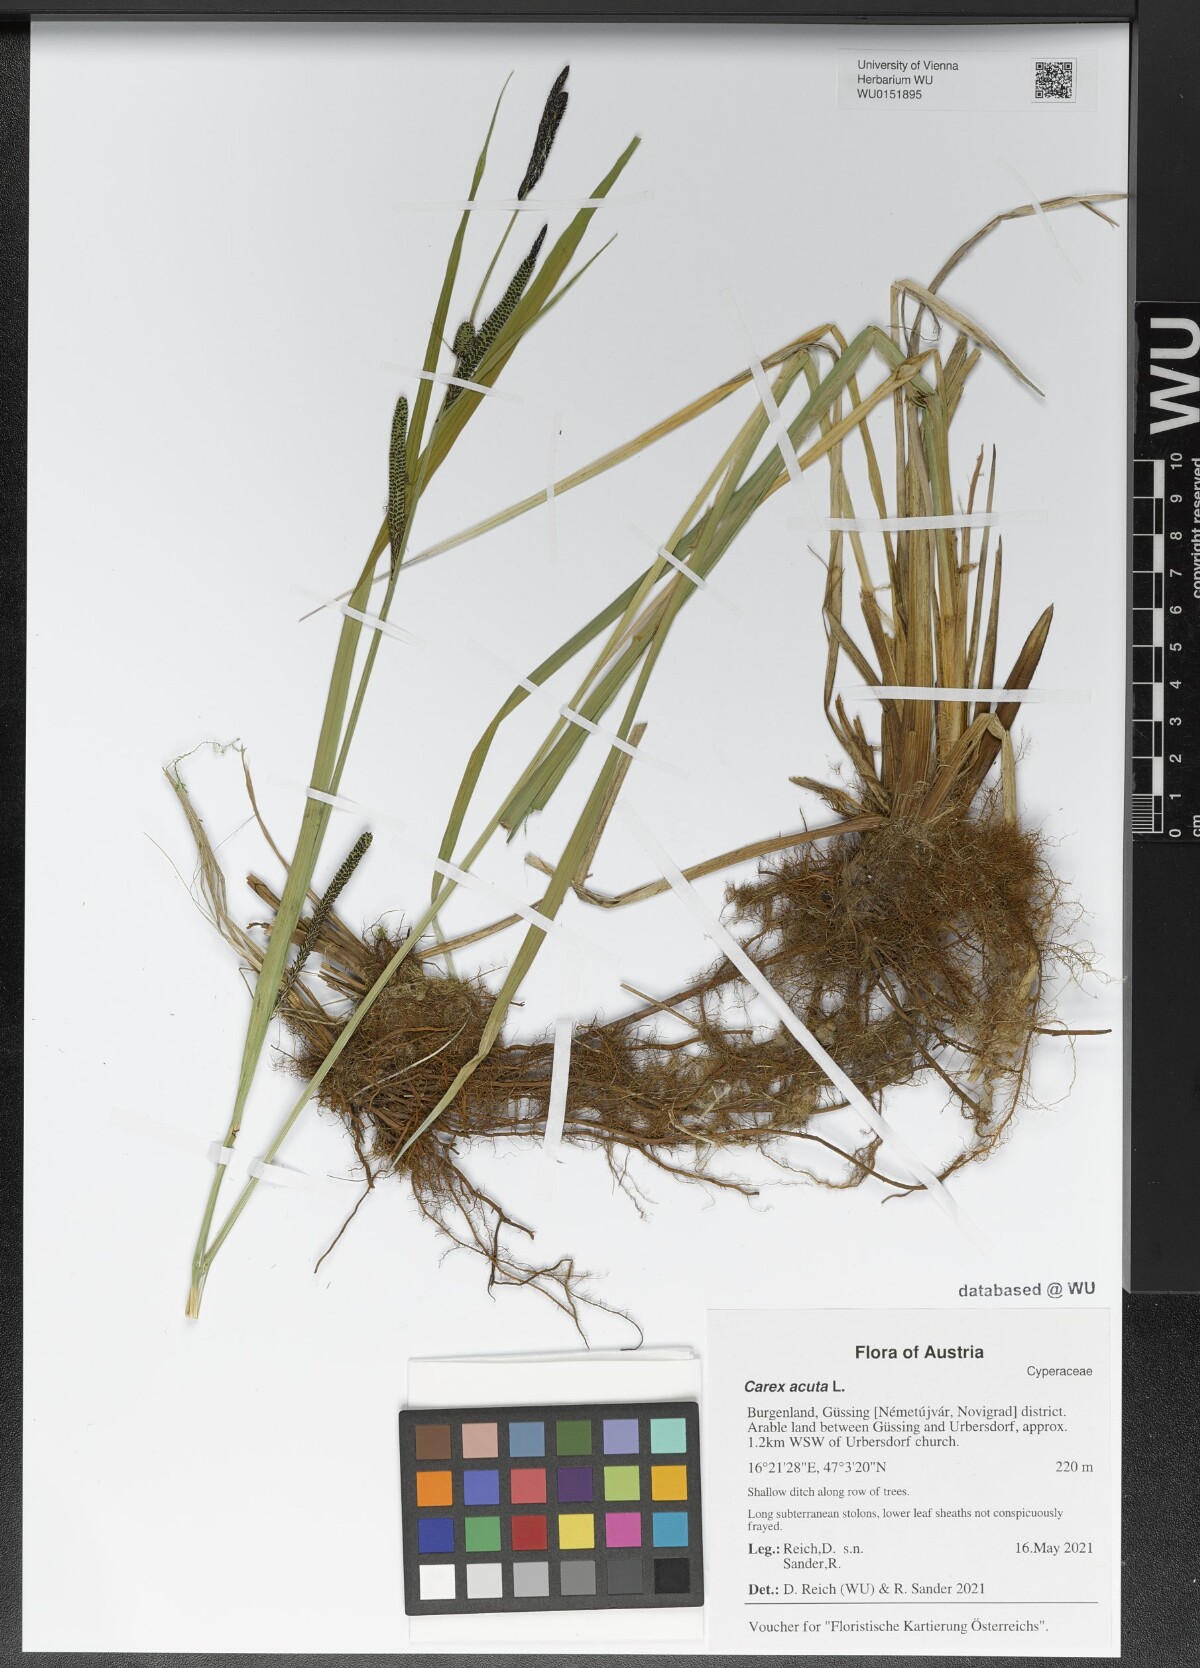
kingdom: Plantae
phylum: Tracheophyta
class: Liliopsida
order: Poales
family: Cyperaceae
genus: Carex
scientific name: Carex acuta
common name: Slender tufted-sedge
